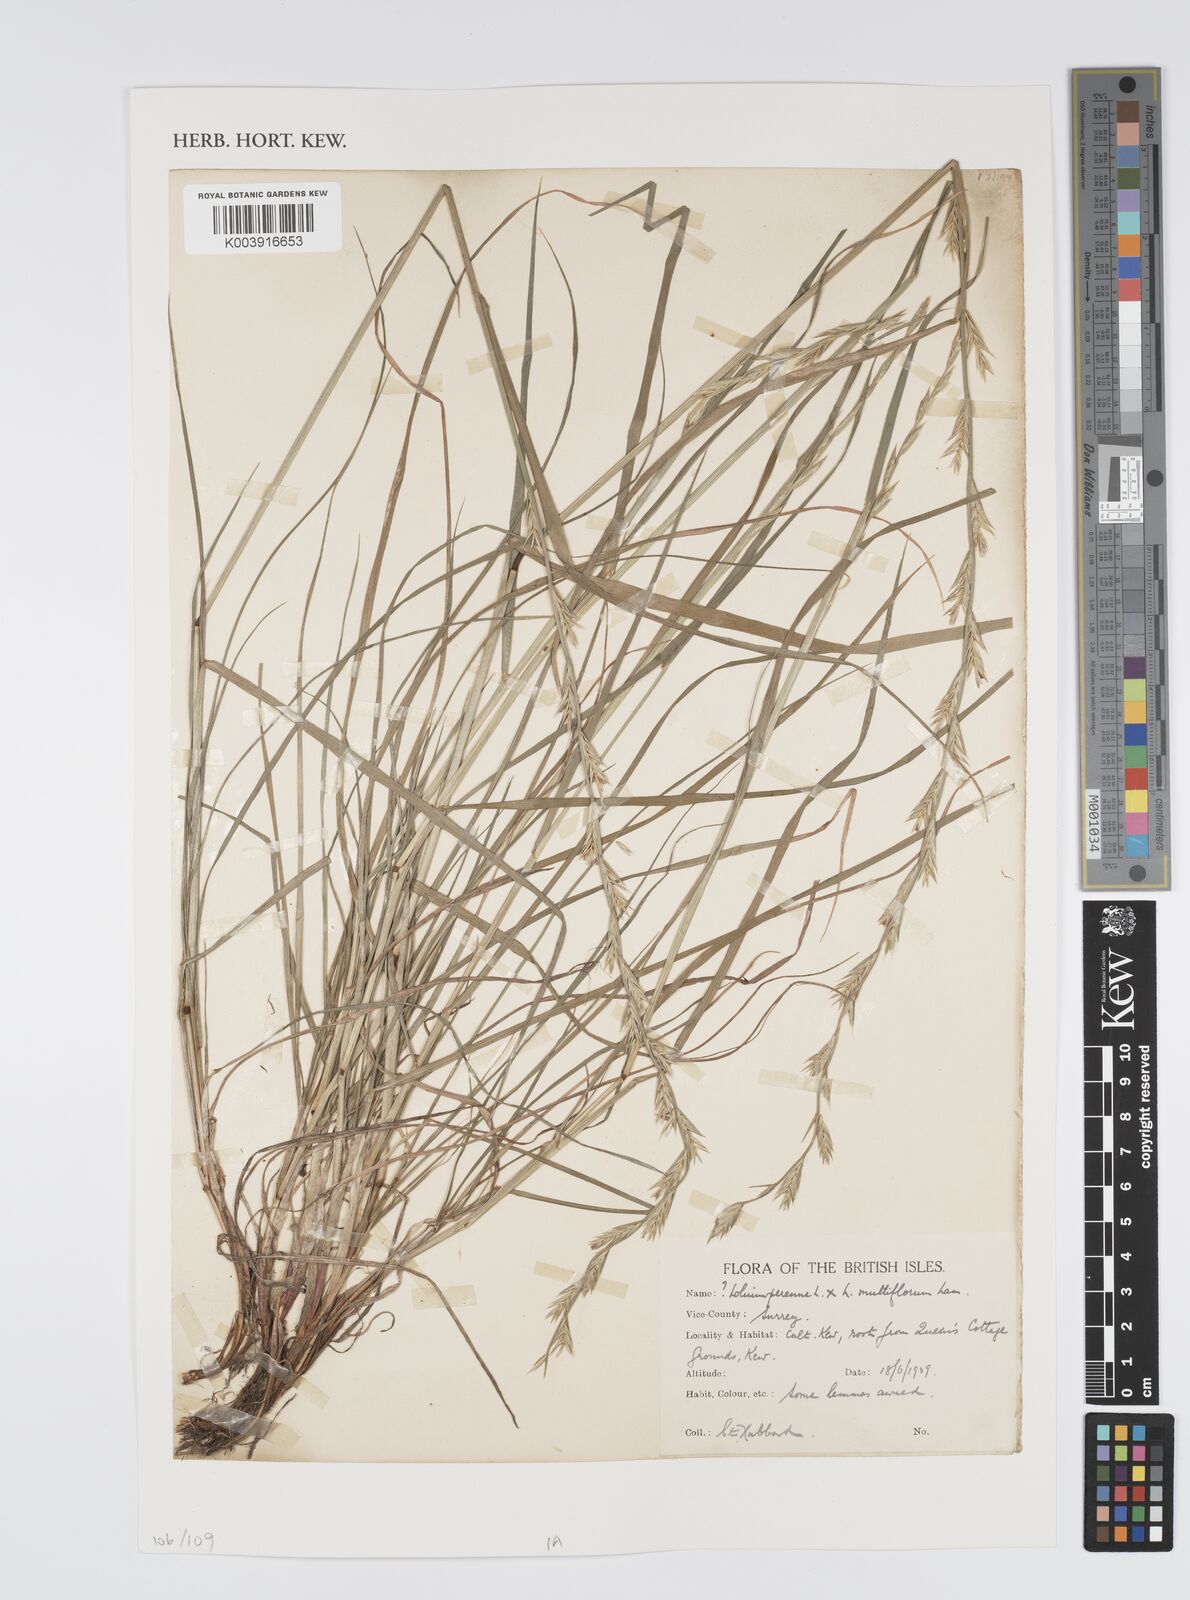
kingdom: Plantae
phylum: Tracheophyta
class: Liliopsida
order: Poales
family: Poaceae
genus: Lolium
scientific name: Lolium perenne
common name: Perennial ryegrass
